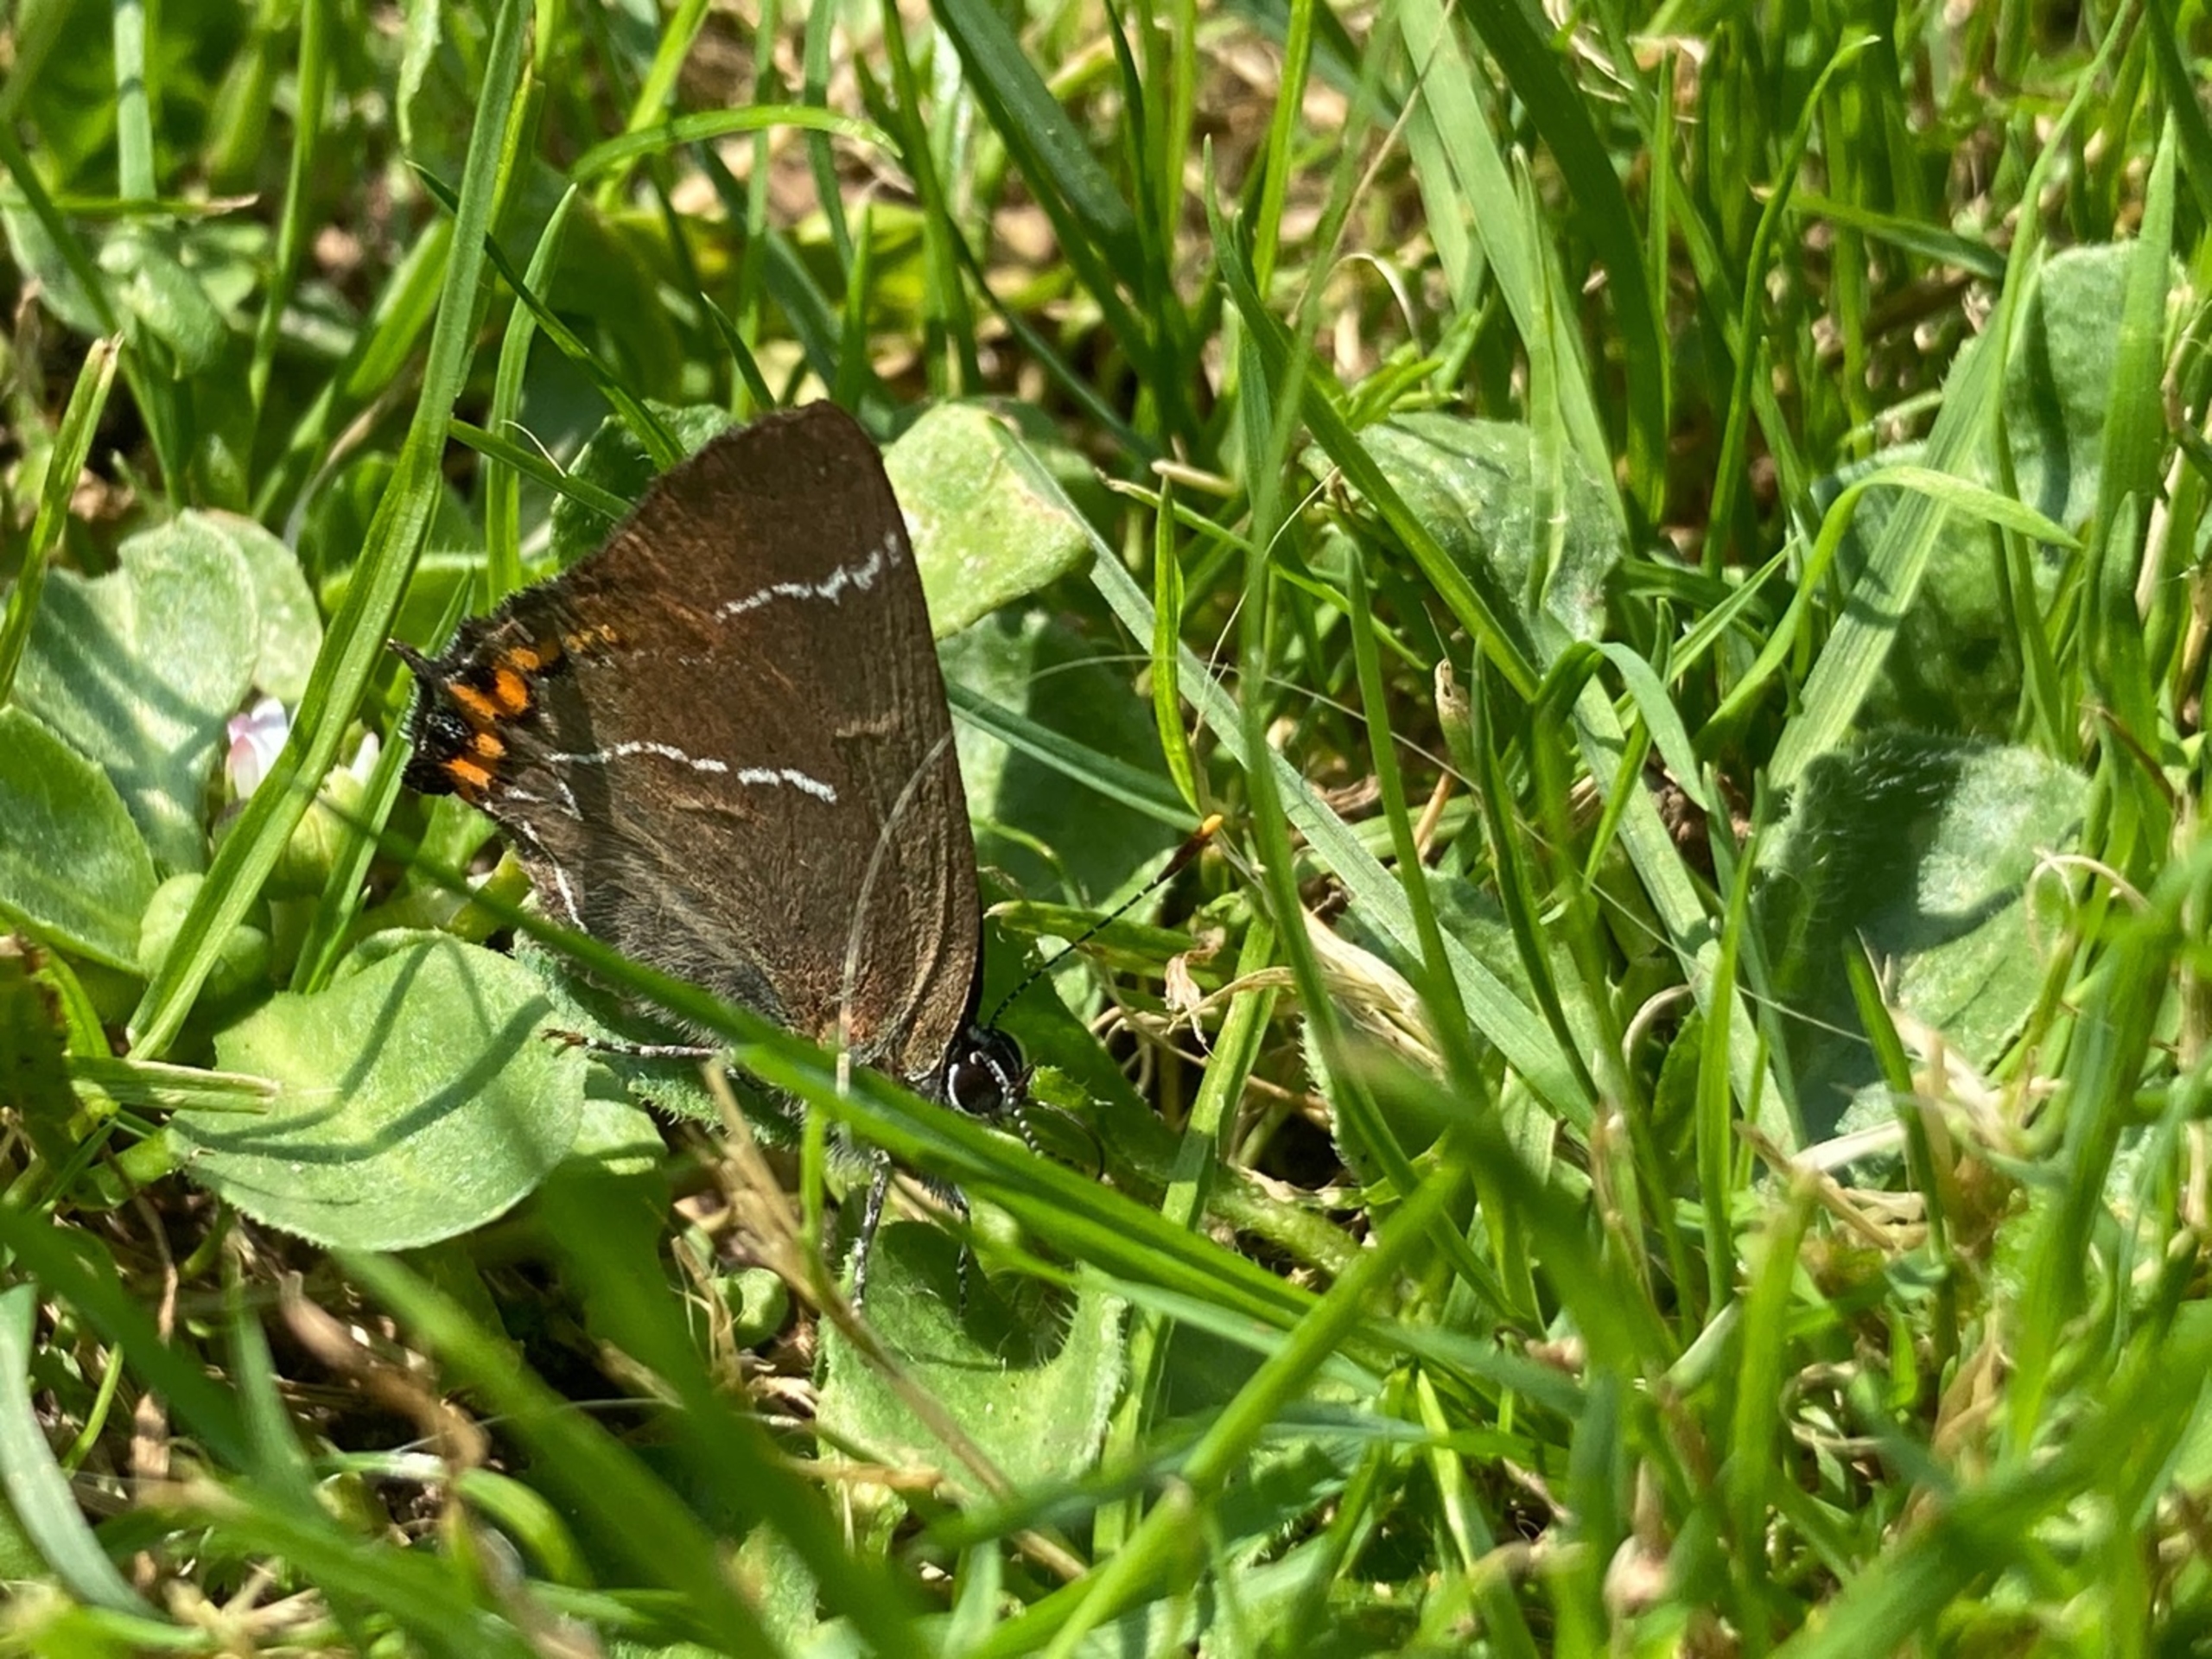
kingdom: Animalia
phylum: Arthropoda
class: Insecta
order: Lepidoptera
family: Lycaenidae
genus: Satyrium
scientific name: Satyrium w-album
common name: Det hvide W
